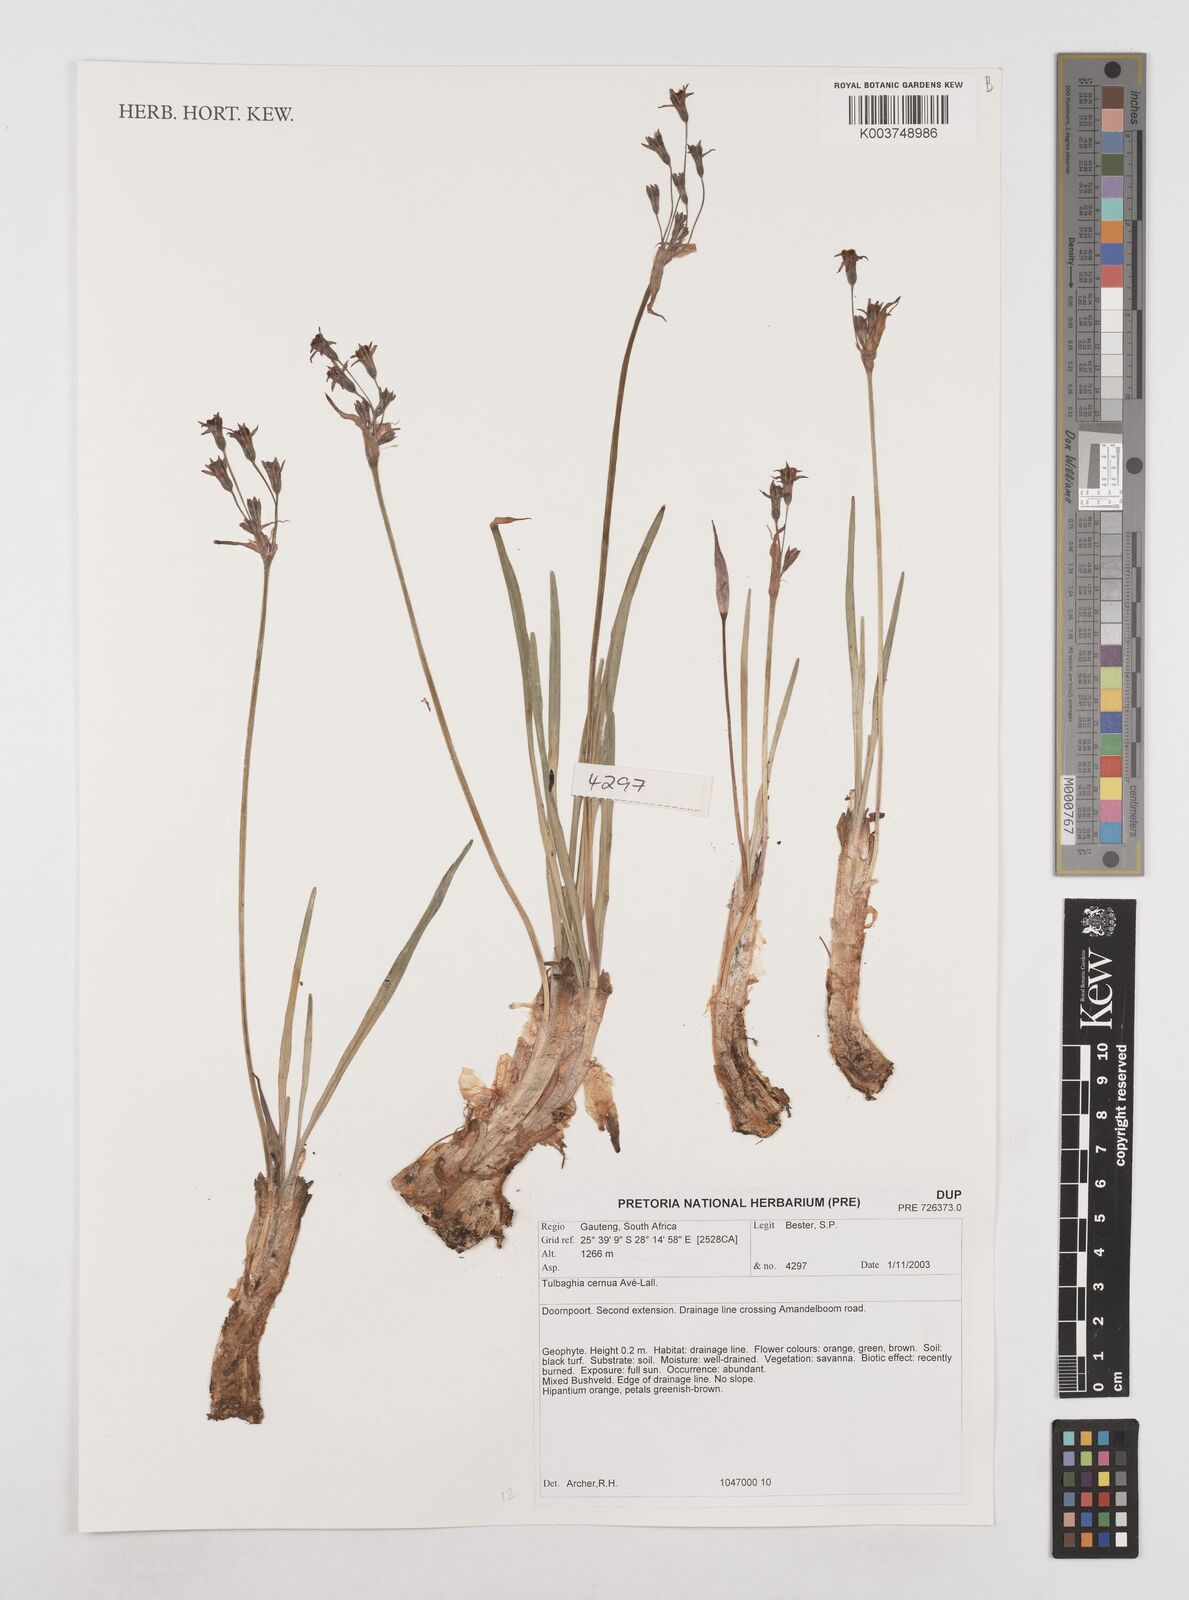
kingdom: Plantae
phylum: Tracheophyta
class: Liliopsida
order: Asparagales
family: Amaryllidaceae
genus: Tulbaghia
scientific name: Tulbaghia cernua
